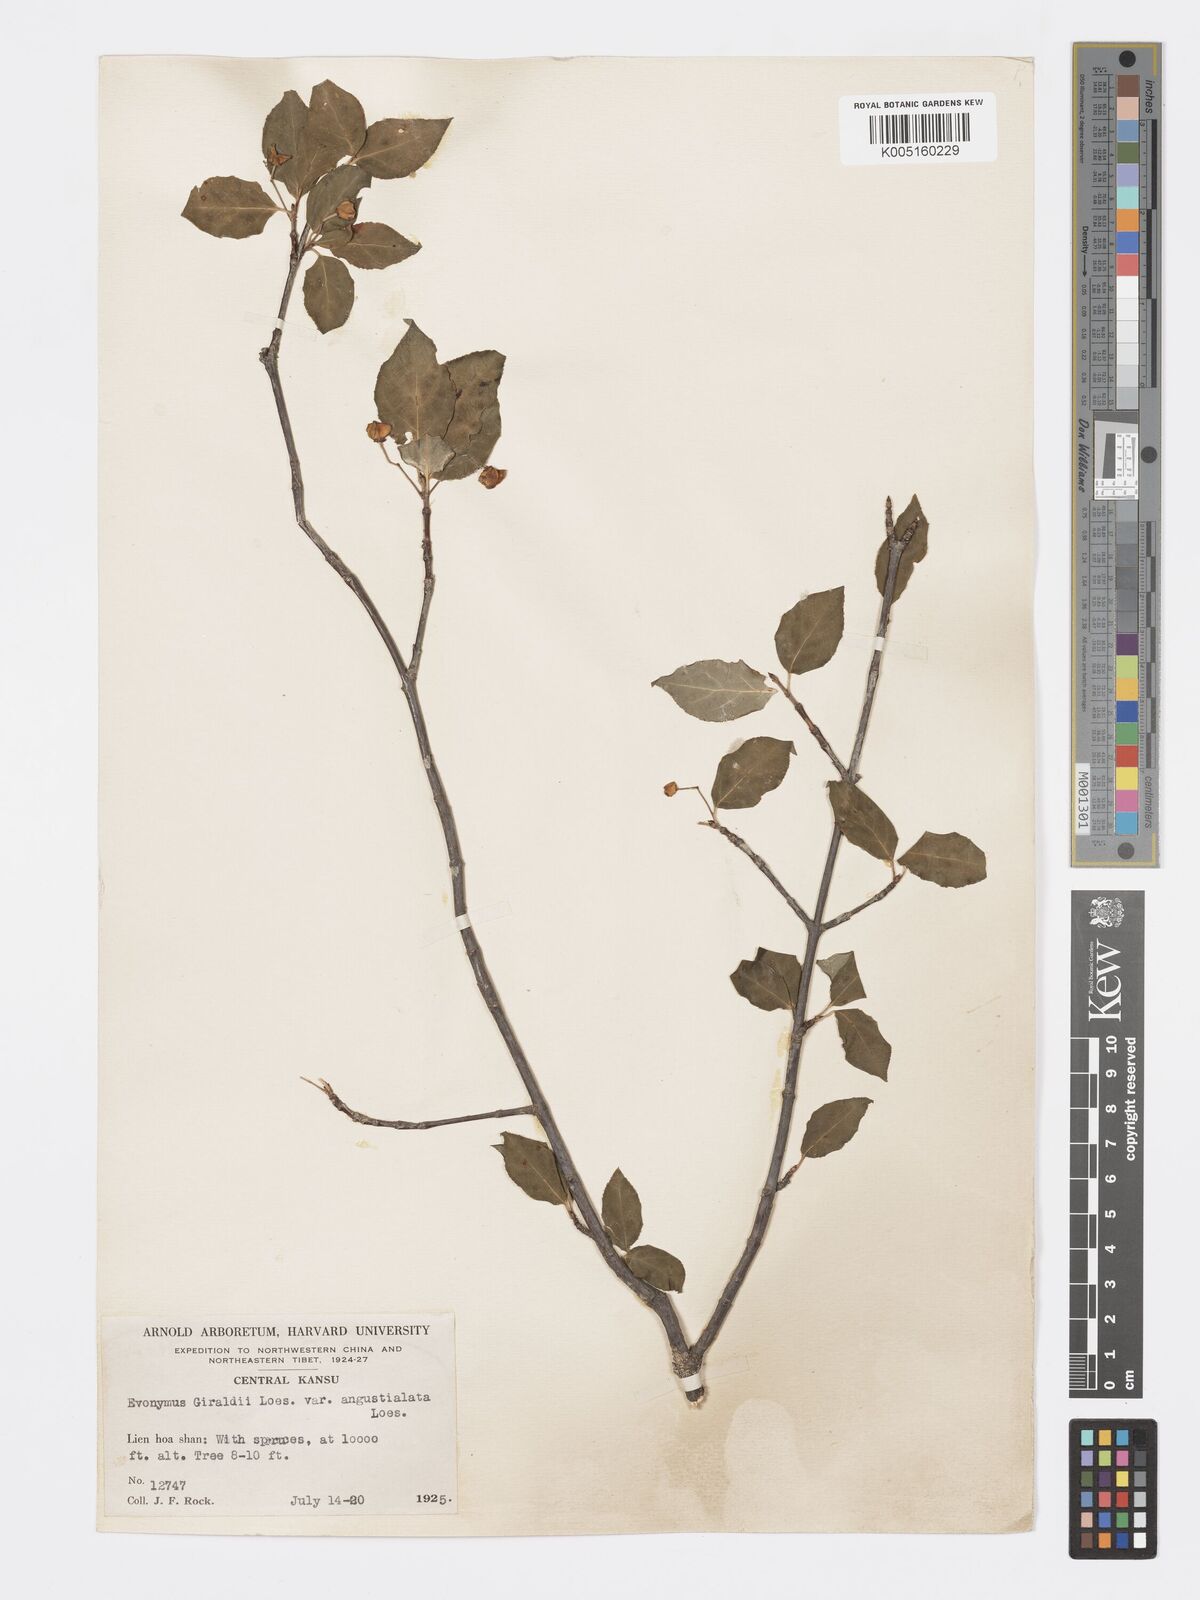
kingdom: Plantae
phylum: Tracheophyta
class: Magnoliopsida
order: Celastrales
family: Celastraceae
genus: Euonymus
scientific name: Euonymus giraldii
